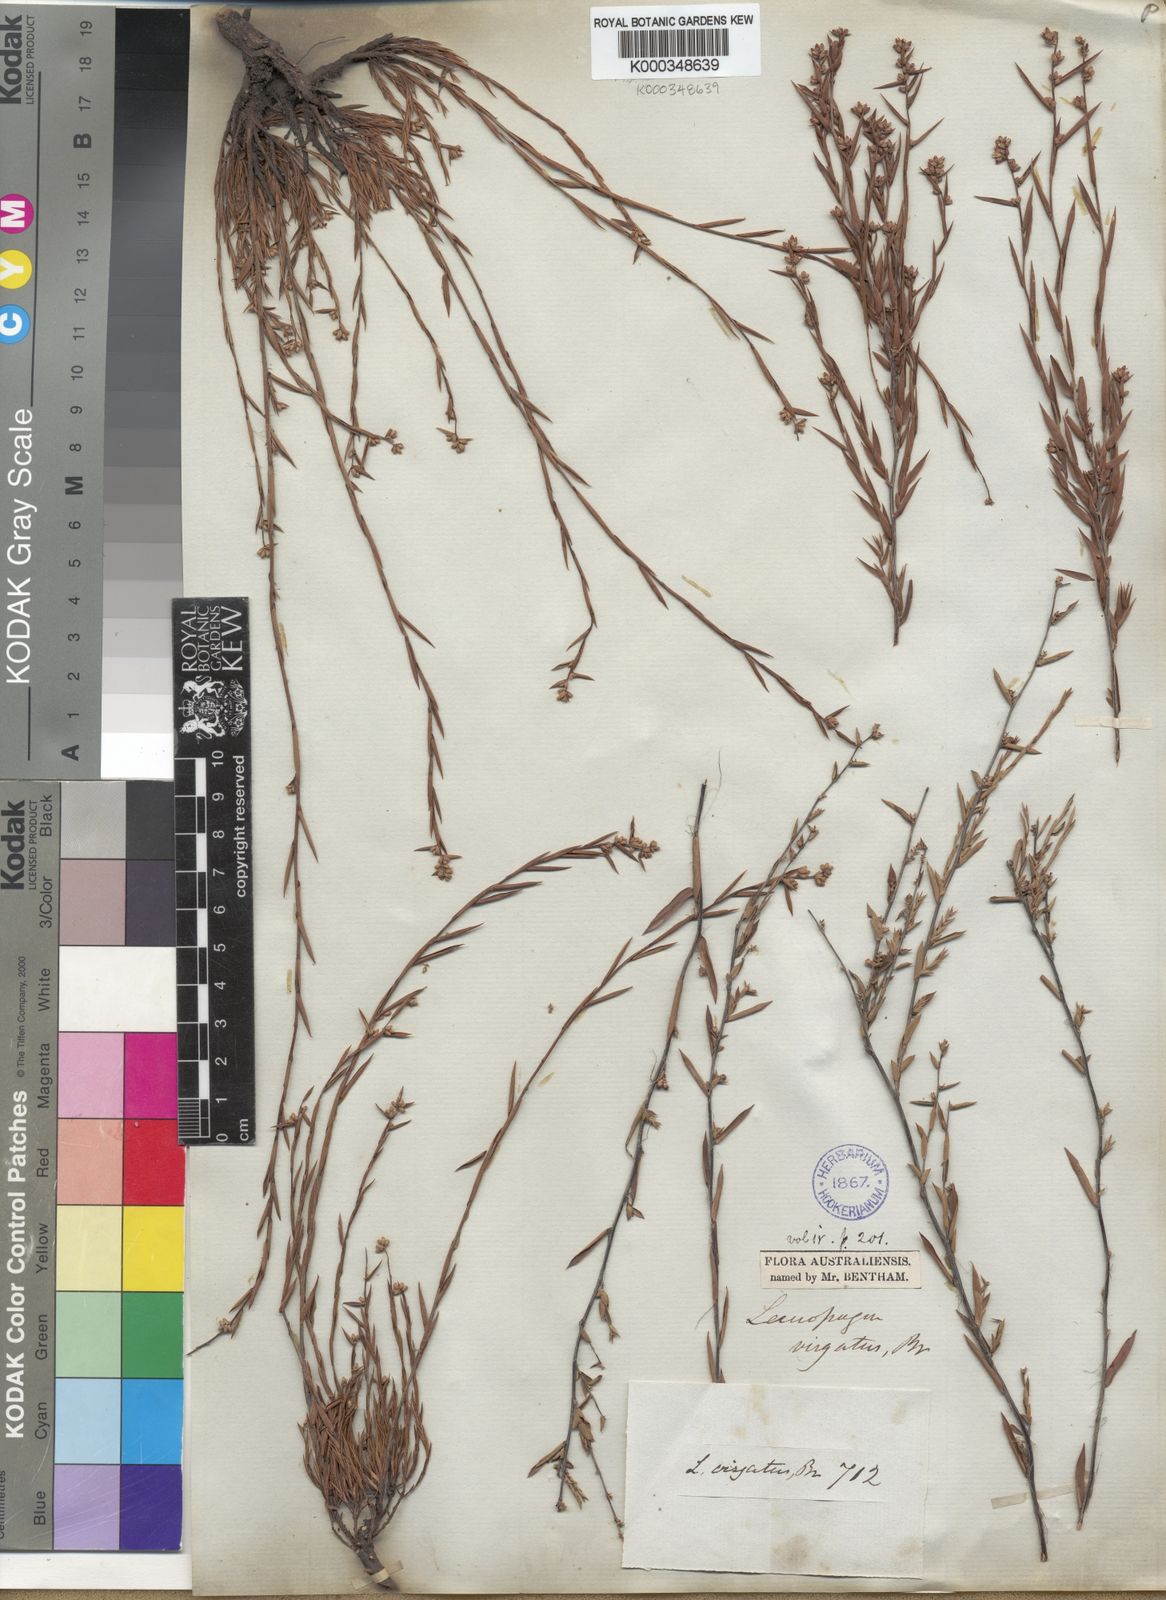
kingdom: Plantae
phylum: Tracheophyta
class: Magnoliopsida
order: Ericales
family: Ericaceae
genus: Leucopogon
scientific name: Leucopogon virgatus
